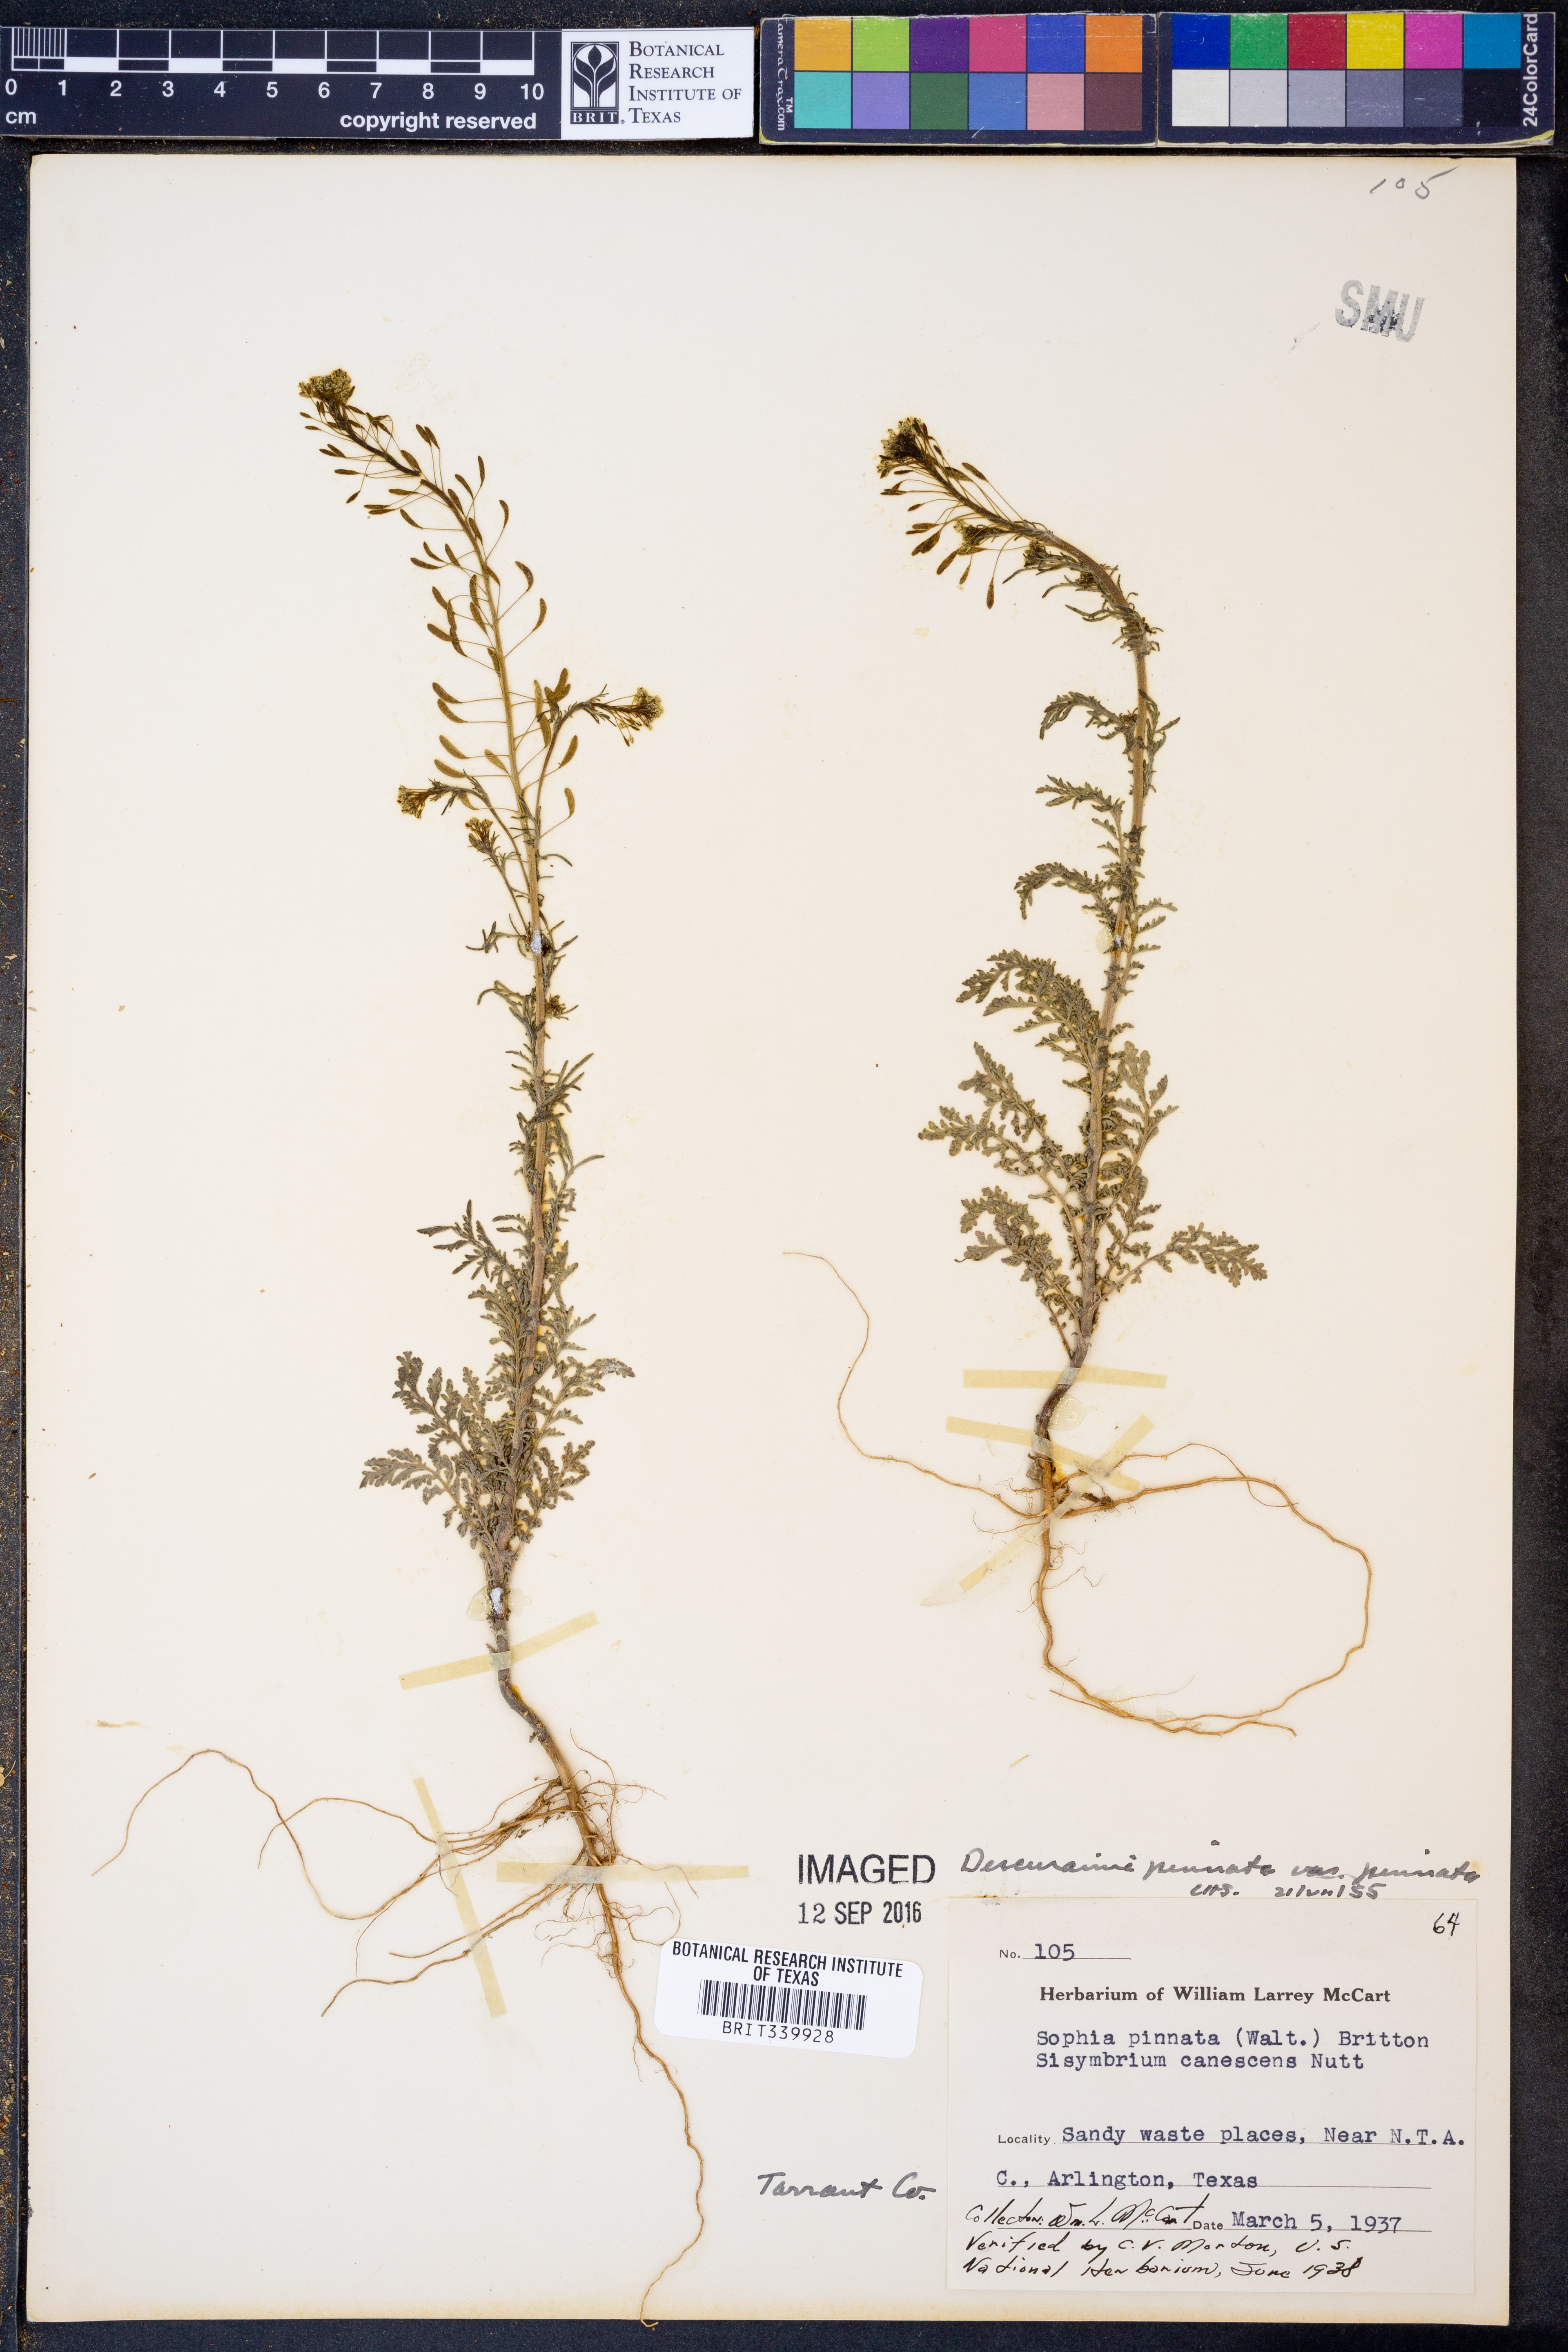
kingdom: Plantae
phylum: Tracheophyta
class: Magnoliopsida
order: Brassicales
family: Brassicaceae
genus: Descurainia
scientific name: Descurainia pinnata
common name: Western tansy mustard
